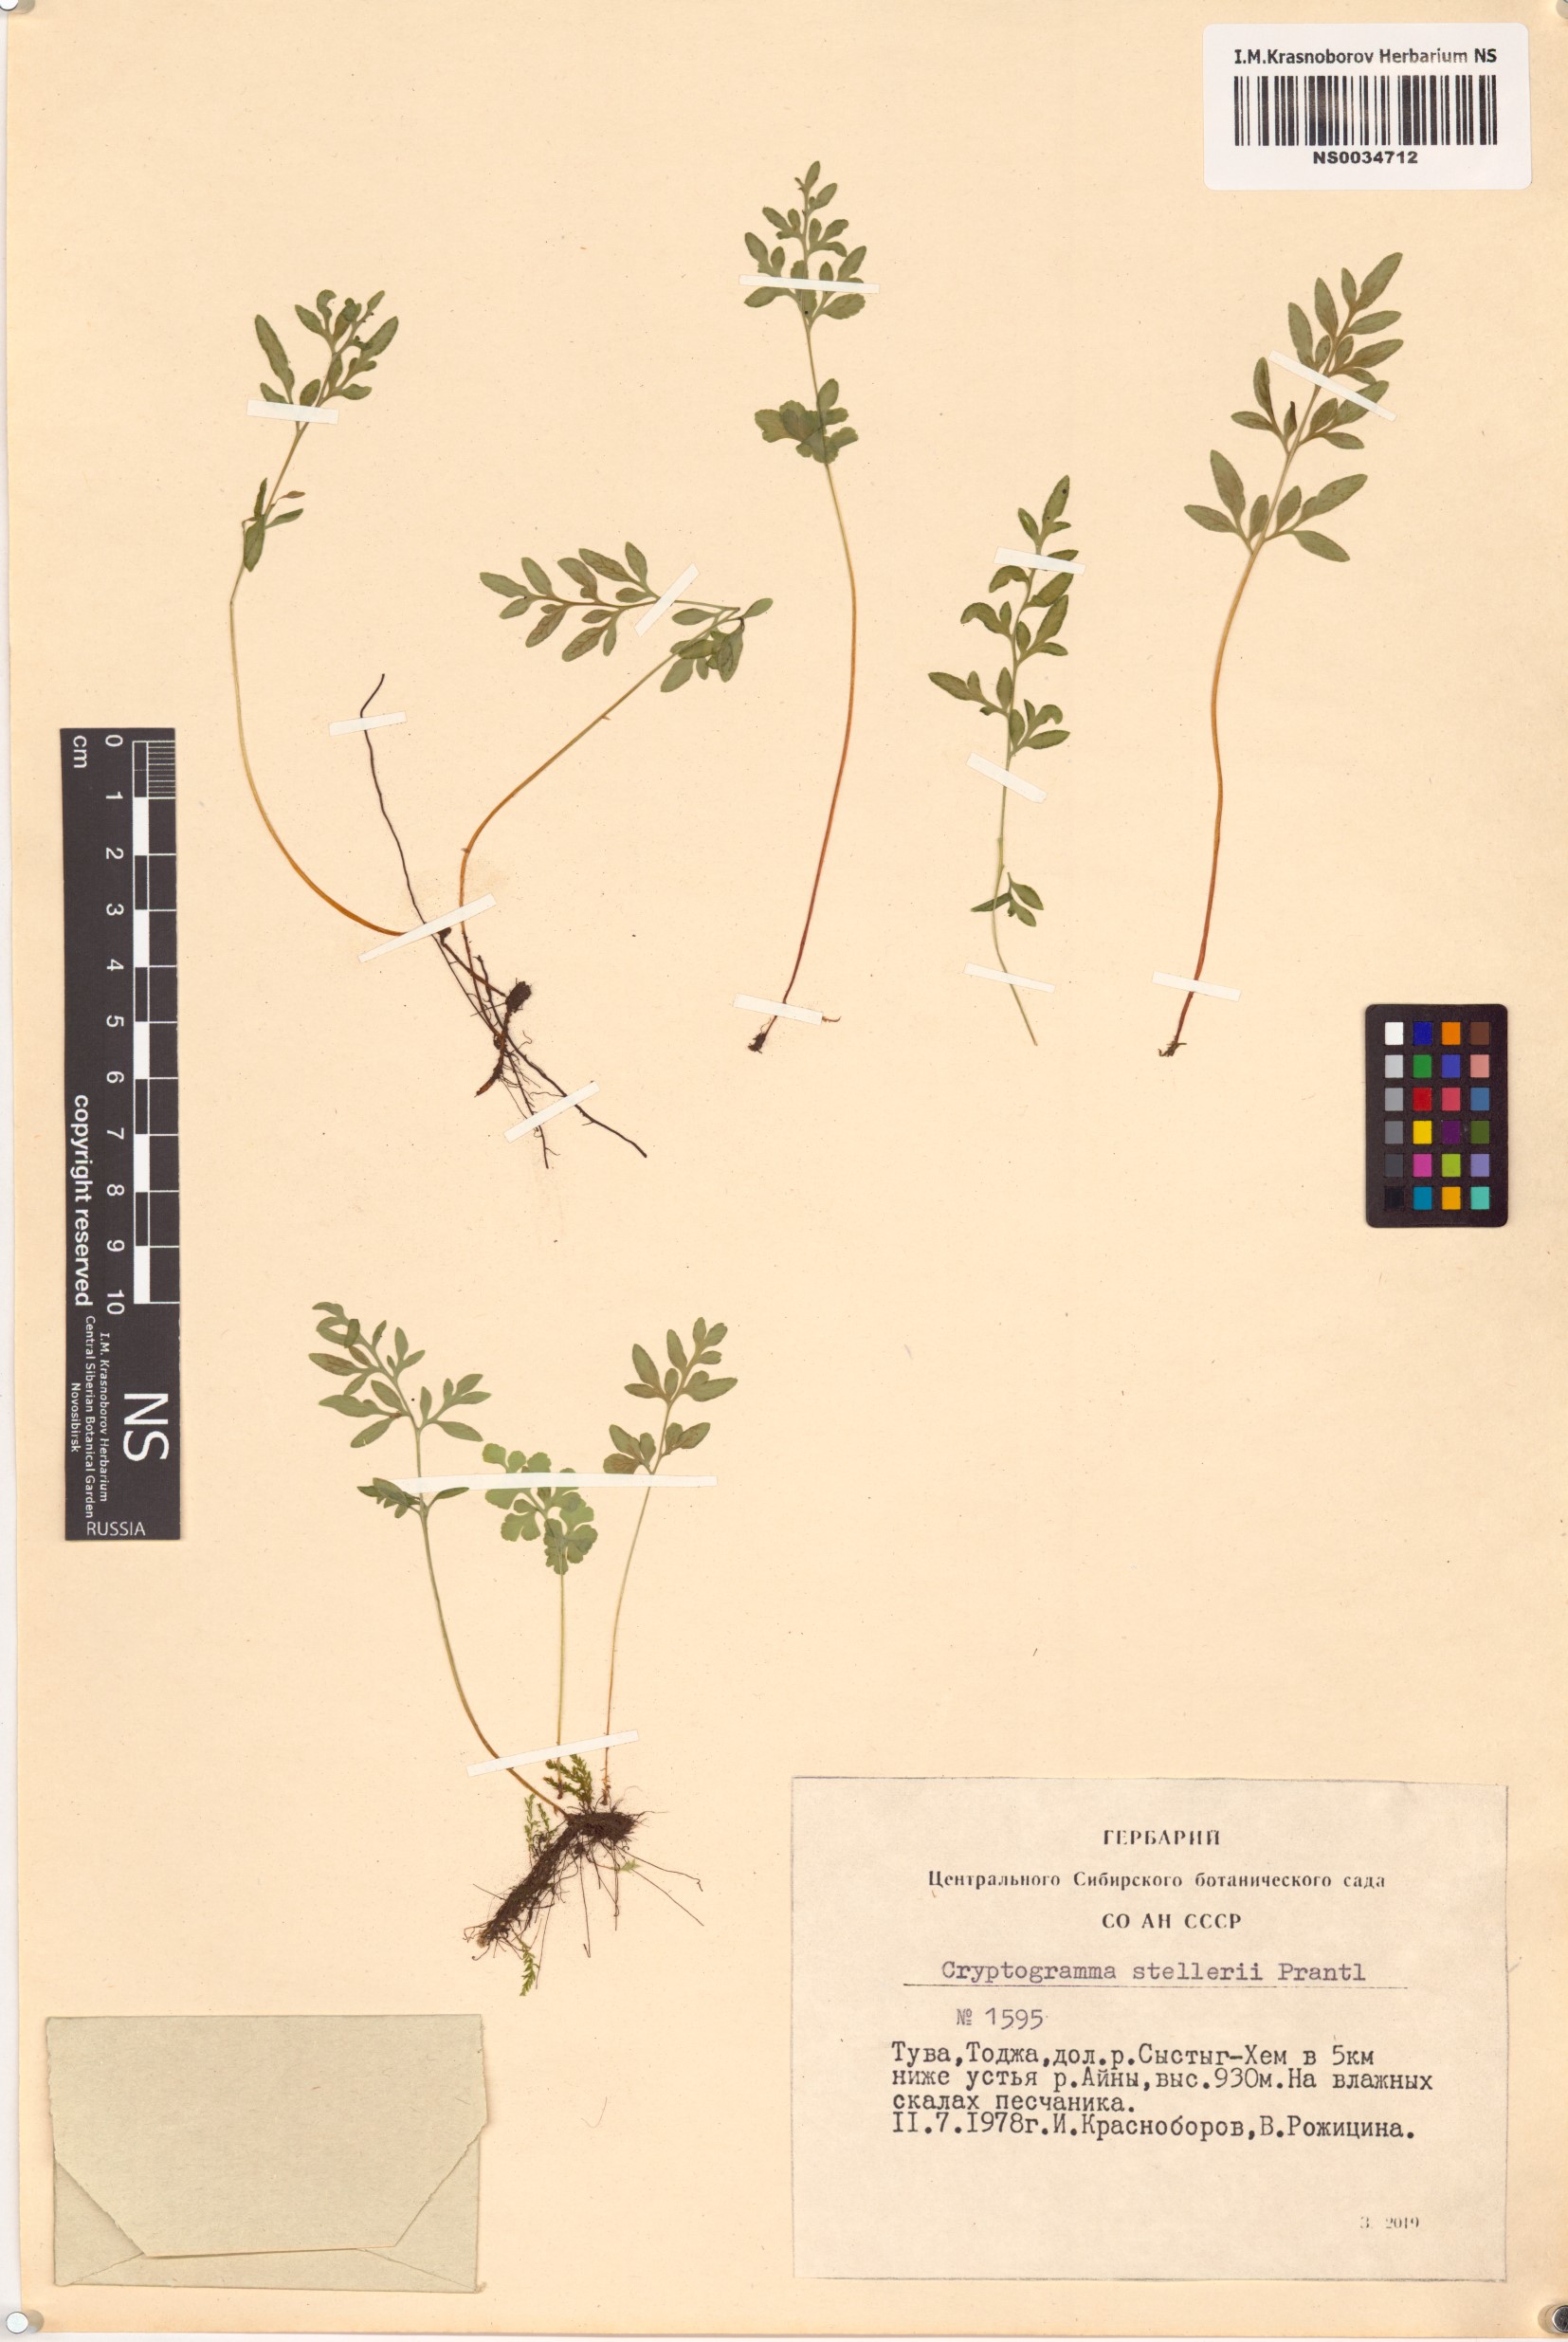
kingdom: Plantae
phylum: Tracheophyta
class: Polypodiopsida
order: Polypodiales
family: Pteridaceae
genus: Cryptogramma
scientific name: Cryptogramma stelleri
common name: Cliff-brake
